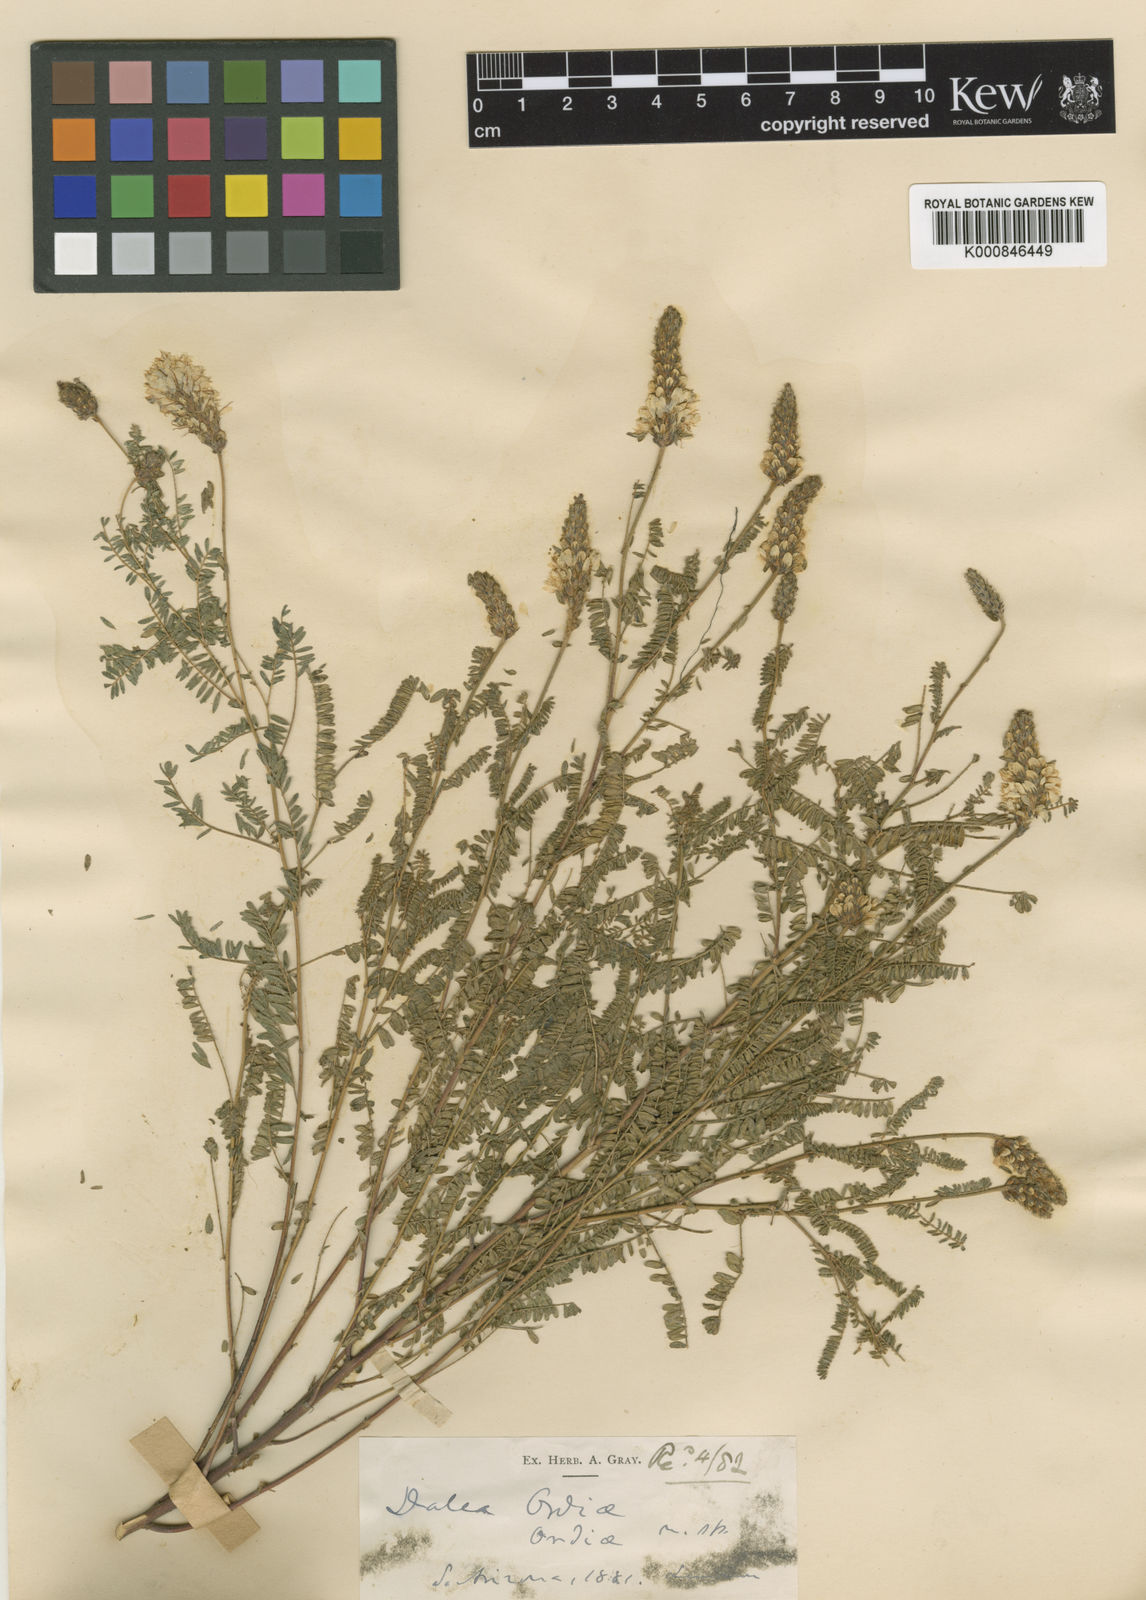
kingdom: Plantae
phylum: Tracheophyta
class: Magnoliopsida
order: Fabales
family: Fabaceae
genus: Dalea
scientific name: Dalea albiflora
